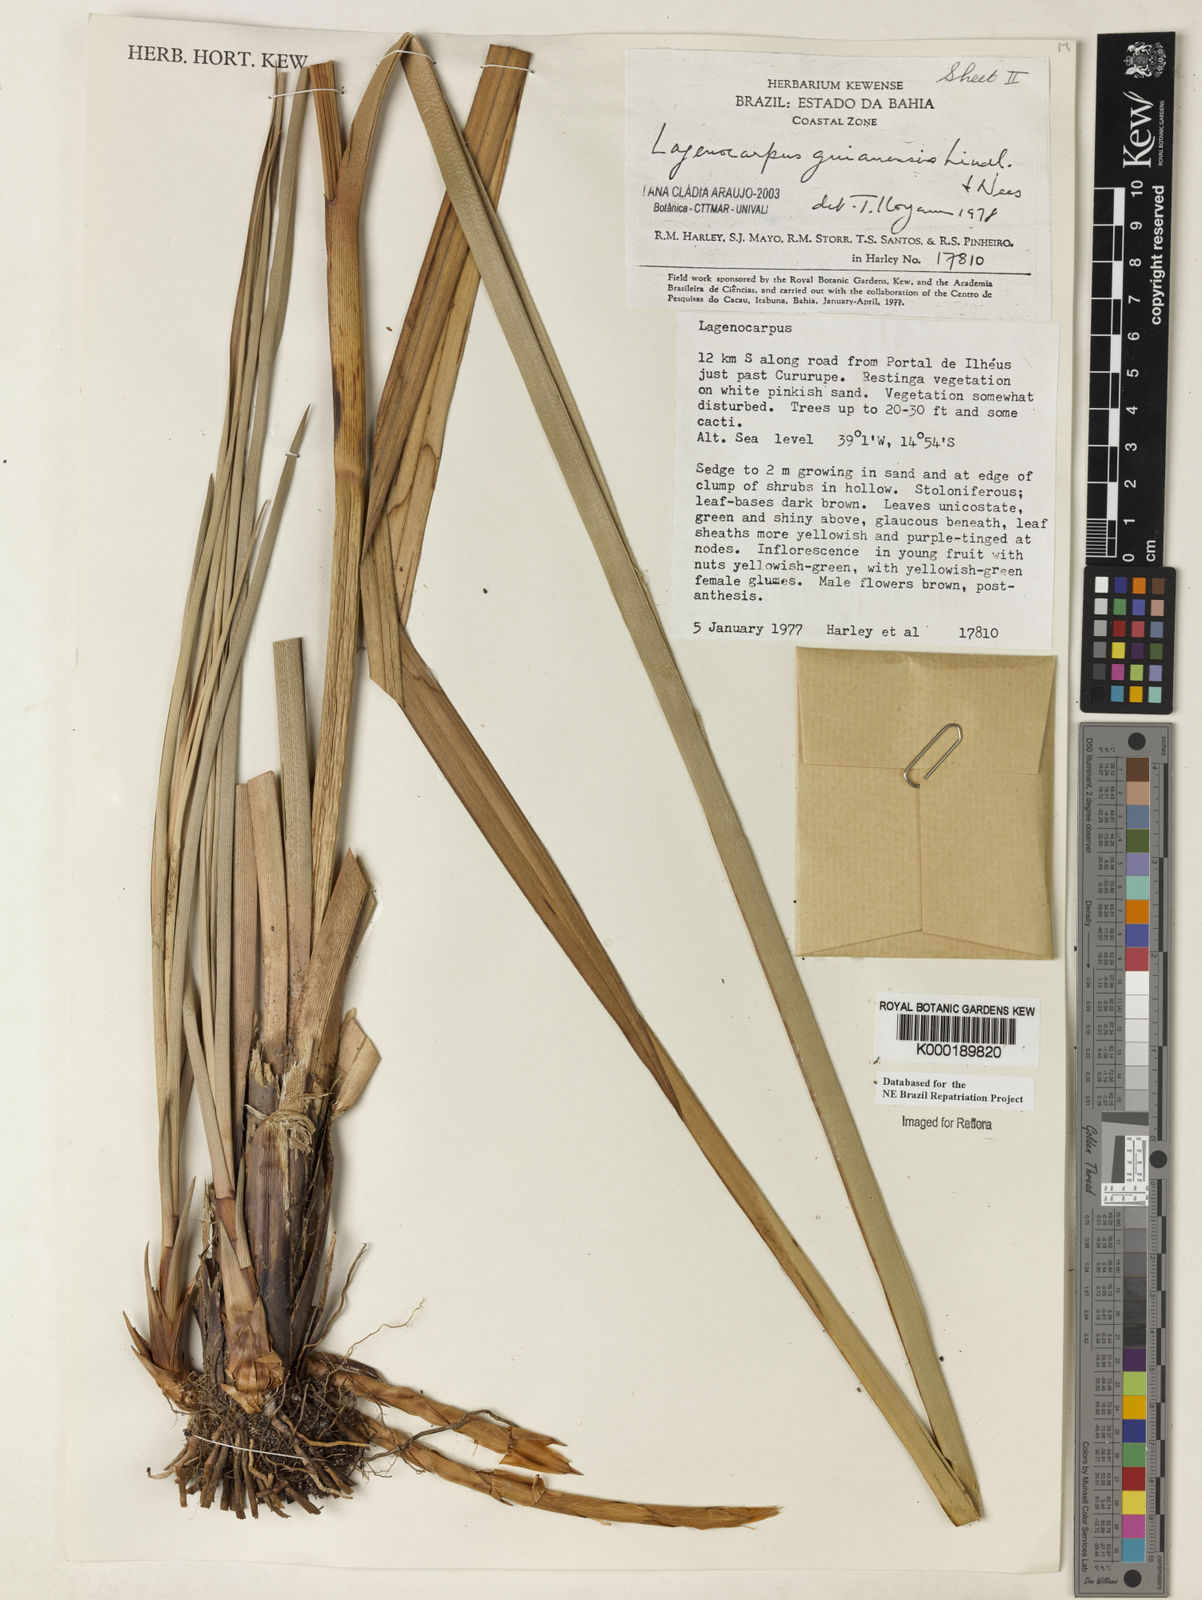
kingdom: Plantae
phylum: Tracheophyta
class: Liliopsida
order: Poales
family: Cyperaceae
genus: Lagenocarpus
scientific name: Lagenocarpus guianensis
